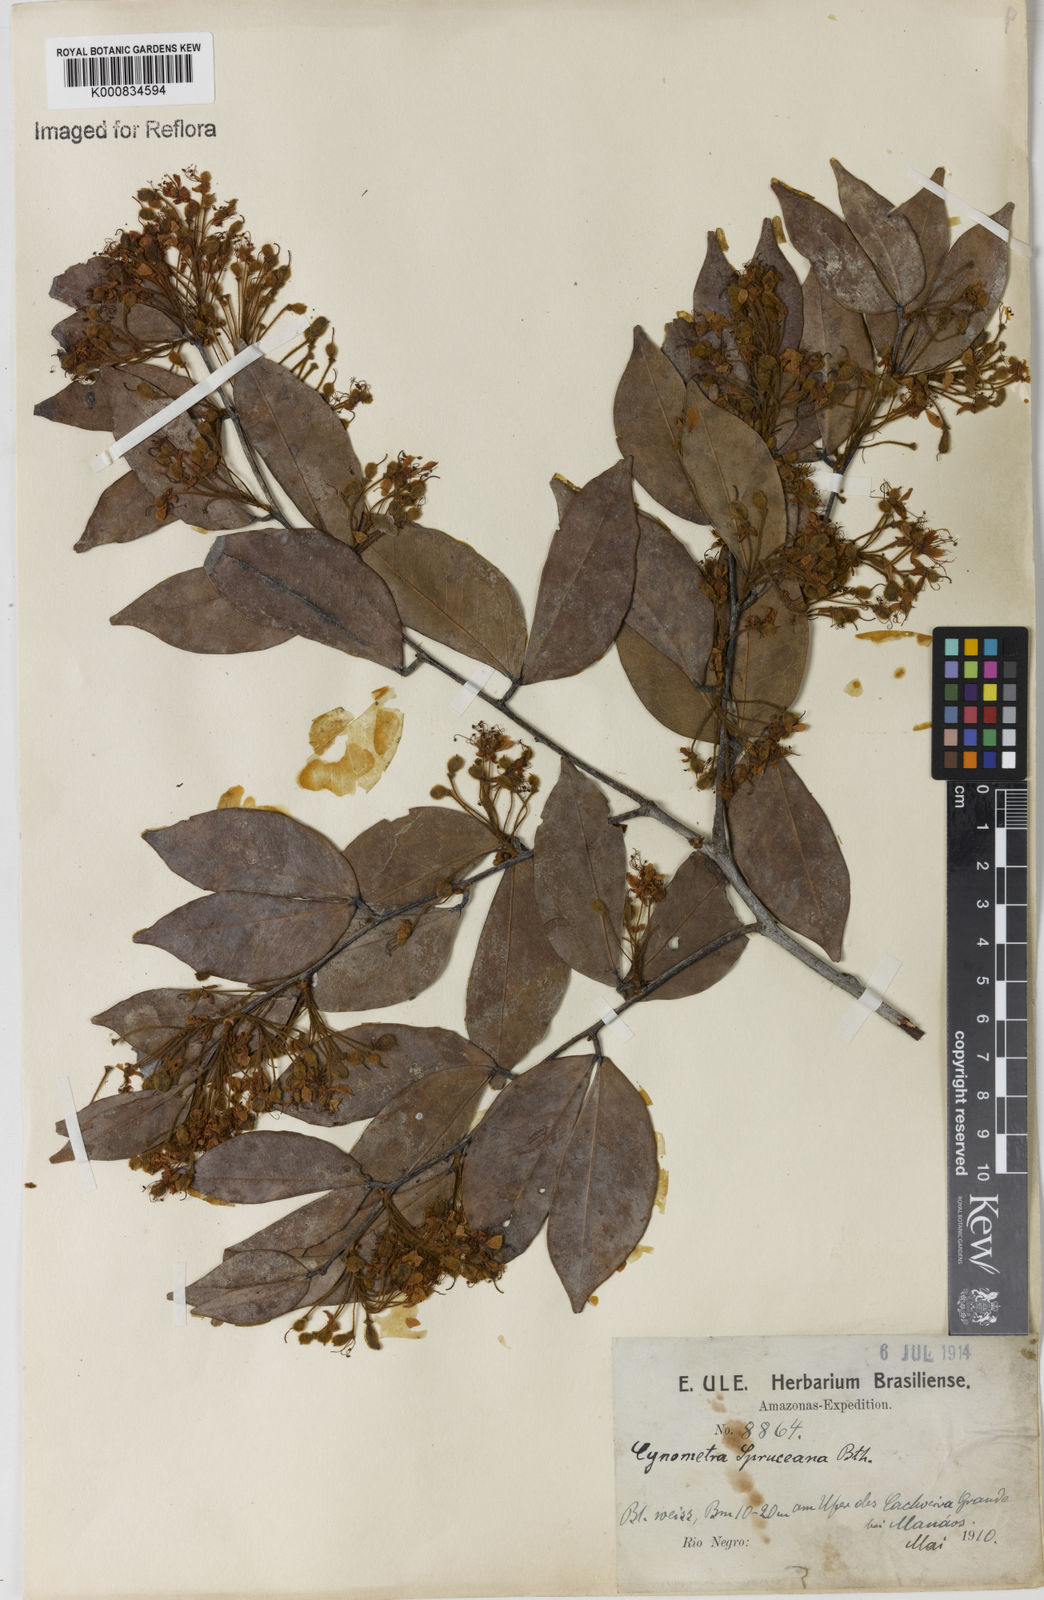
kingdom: Plantae
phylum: Tracheophyta
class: Magnoliopsida
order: Fabales
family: Fabaceae
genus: Cynometra
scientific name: Cynometra phaselocarpa
